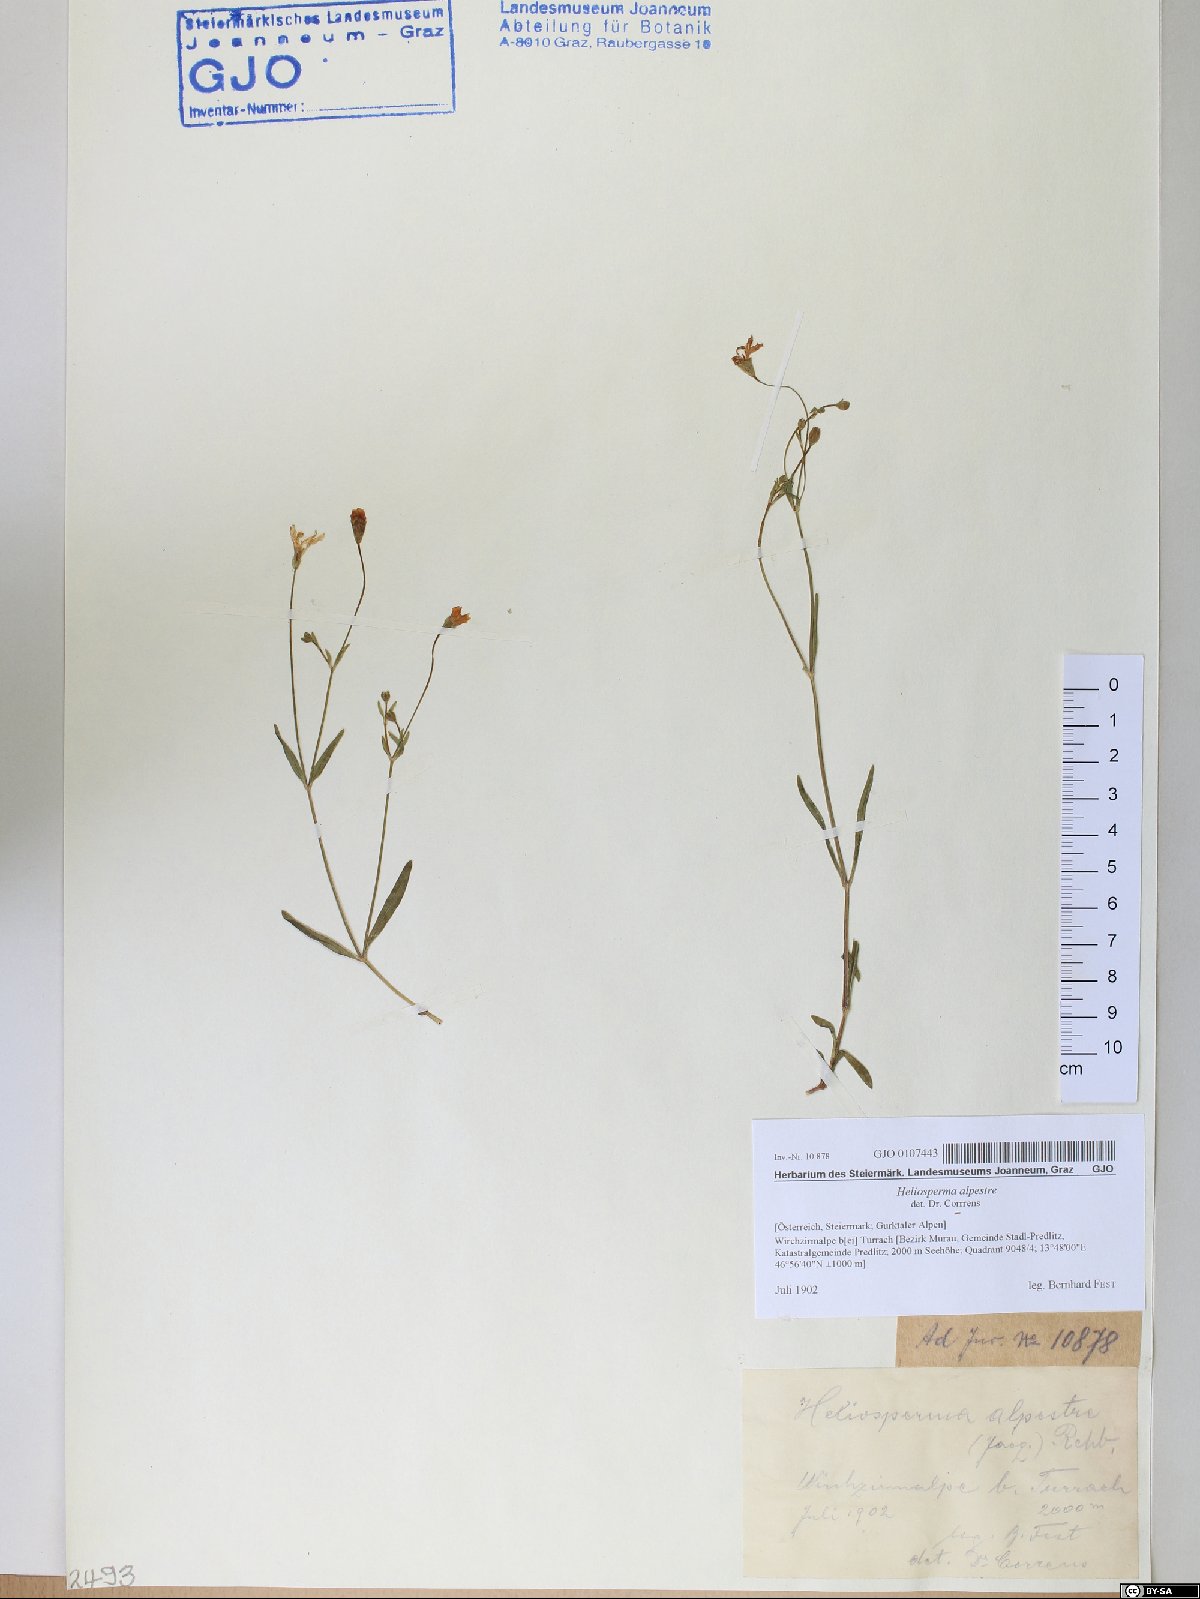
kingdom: Plantae
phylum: Tracheophyta
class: Magnoliopsida
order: Caryophyllales
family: Caryophyllaceae
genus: Heliosperma
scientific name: Heliosperma alpestre
